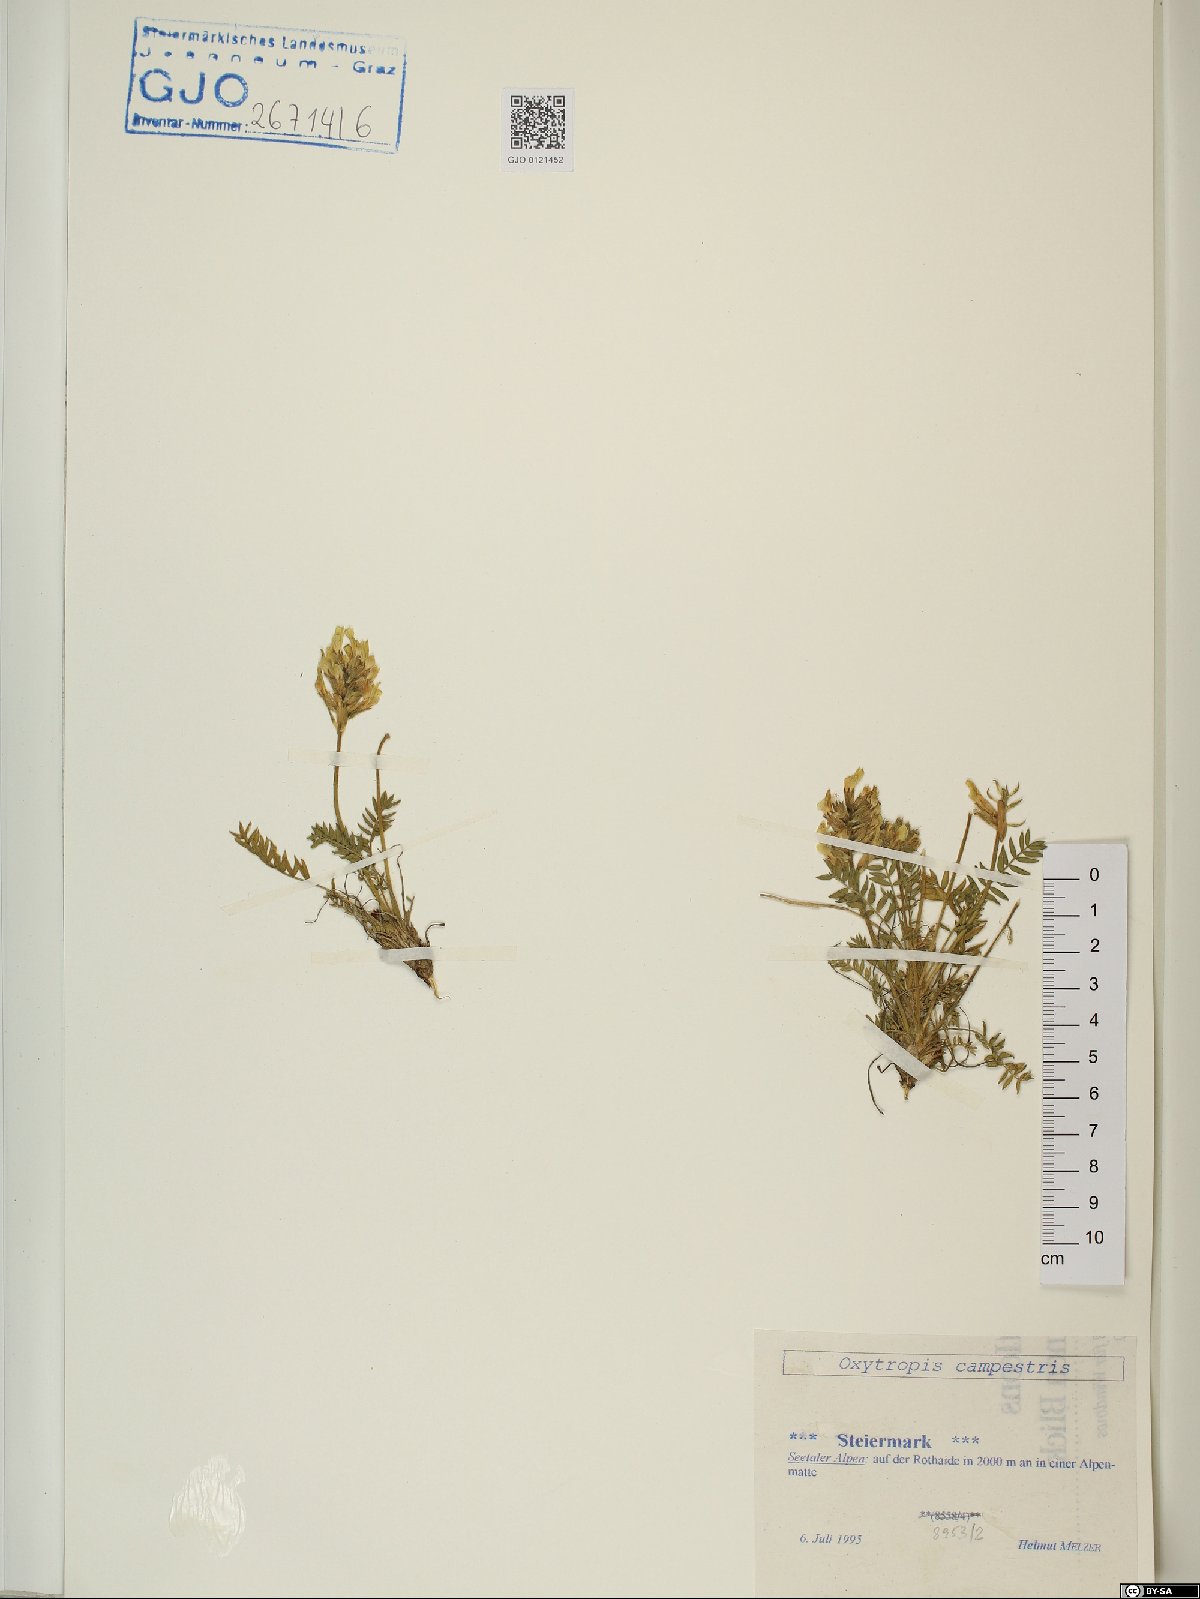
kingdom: Plantae
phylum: Tracheophyta
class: Magnoliopsida
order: Fabales
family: Fabaceae
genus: Oxytropis
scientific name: Oxytropis campestris
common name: Field locoweed
